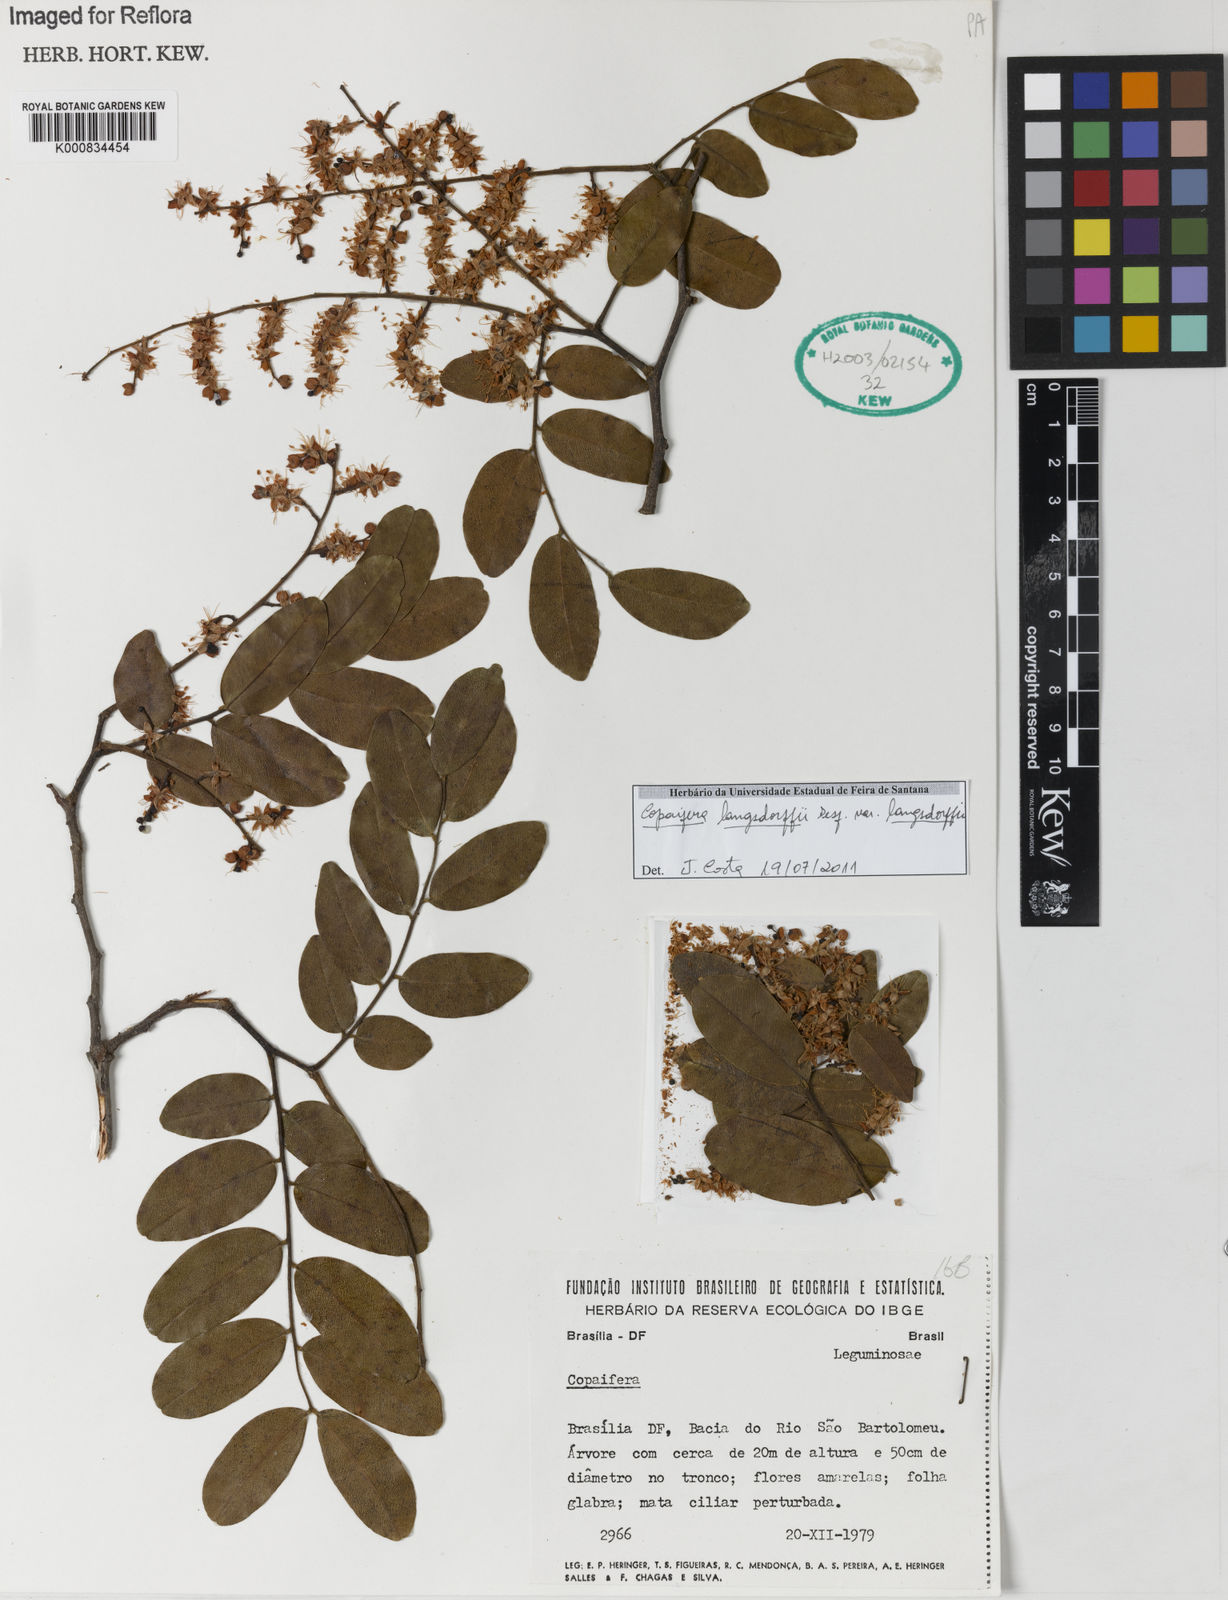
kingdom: Plantae
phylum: Tracheophyta
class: Magnoliopsida
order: Fabales
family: Fabaceae
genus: Copaifera
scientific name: Copaifera langsdorffii
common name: Brazilian diesel tree
